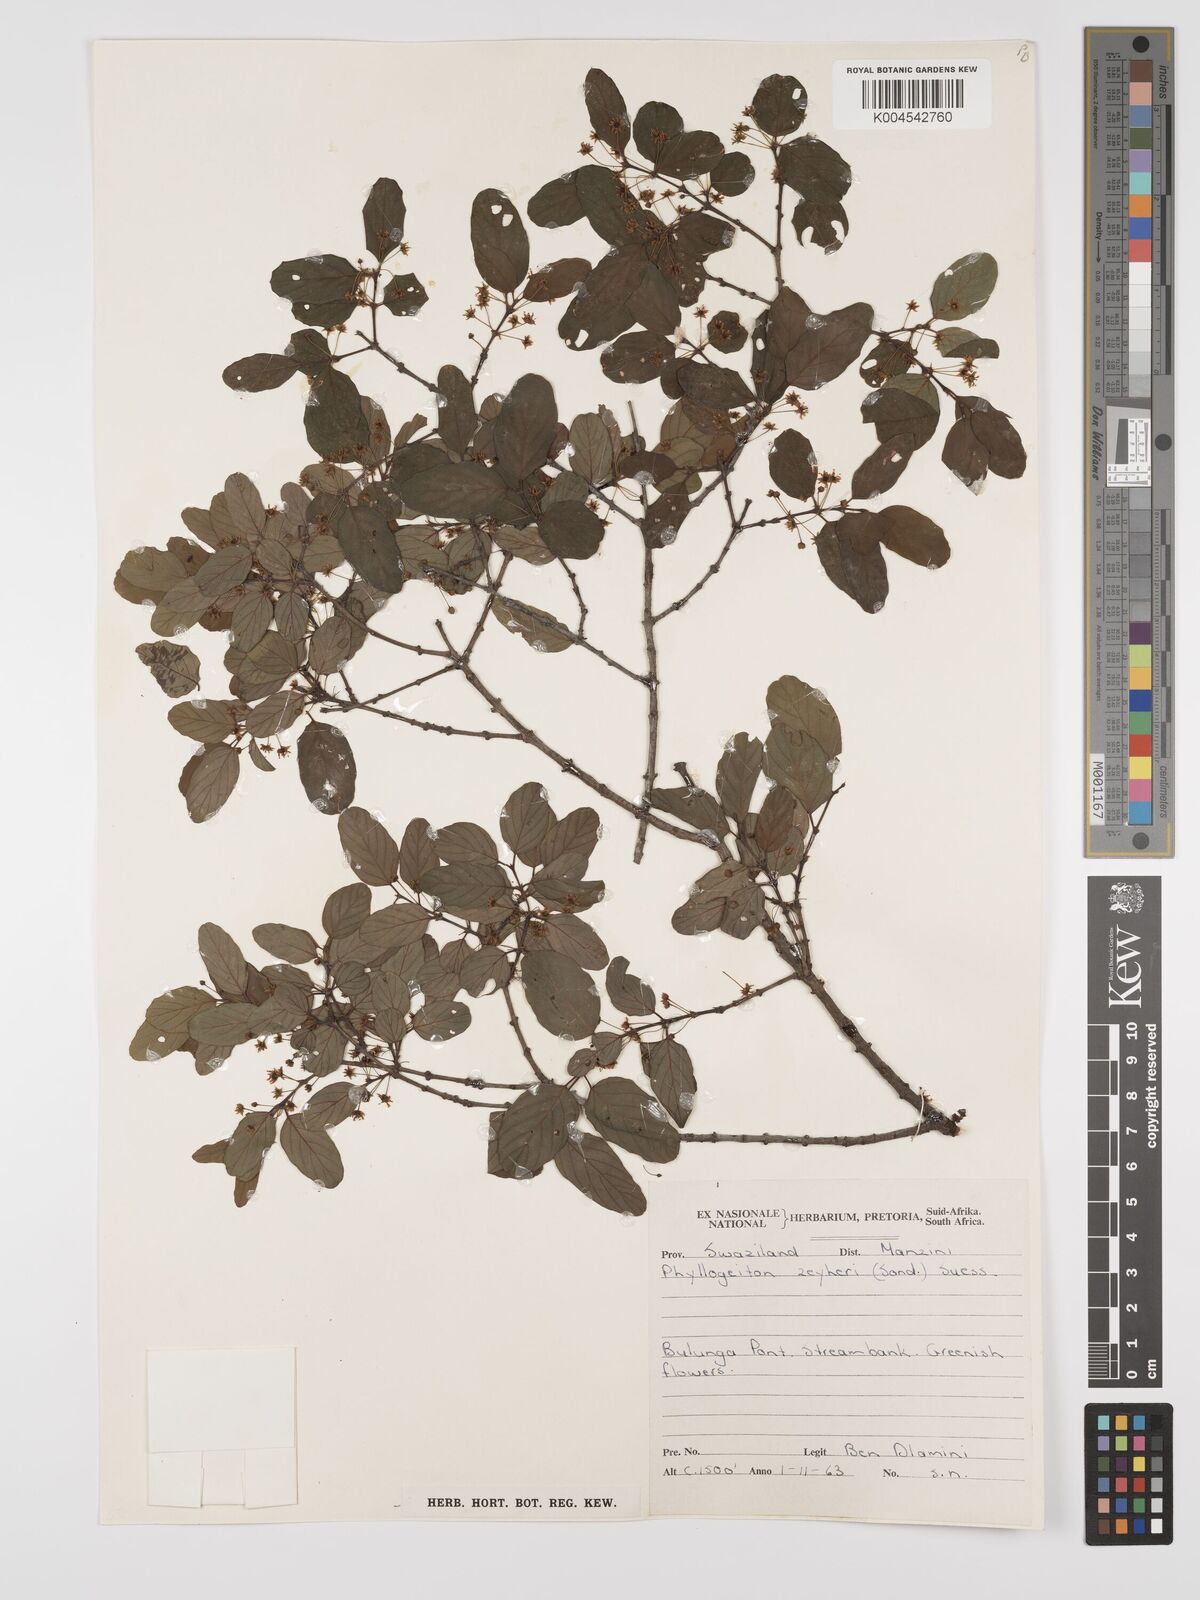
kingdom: Plantae
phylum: Tracheophyta
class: Magnoliopsida
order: Rosales
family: Rhamnaceae
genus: Phyllogeiton
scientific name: Phyllogeiton zeyheri
